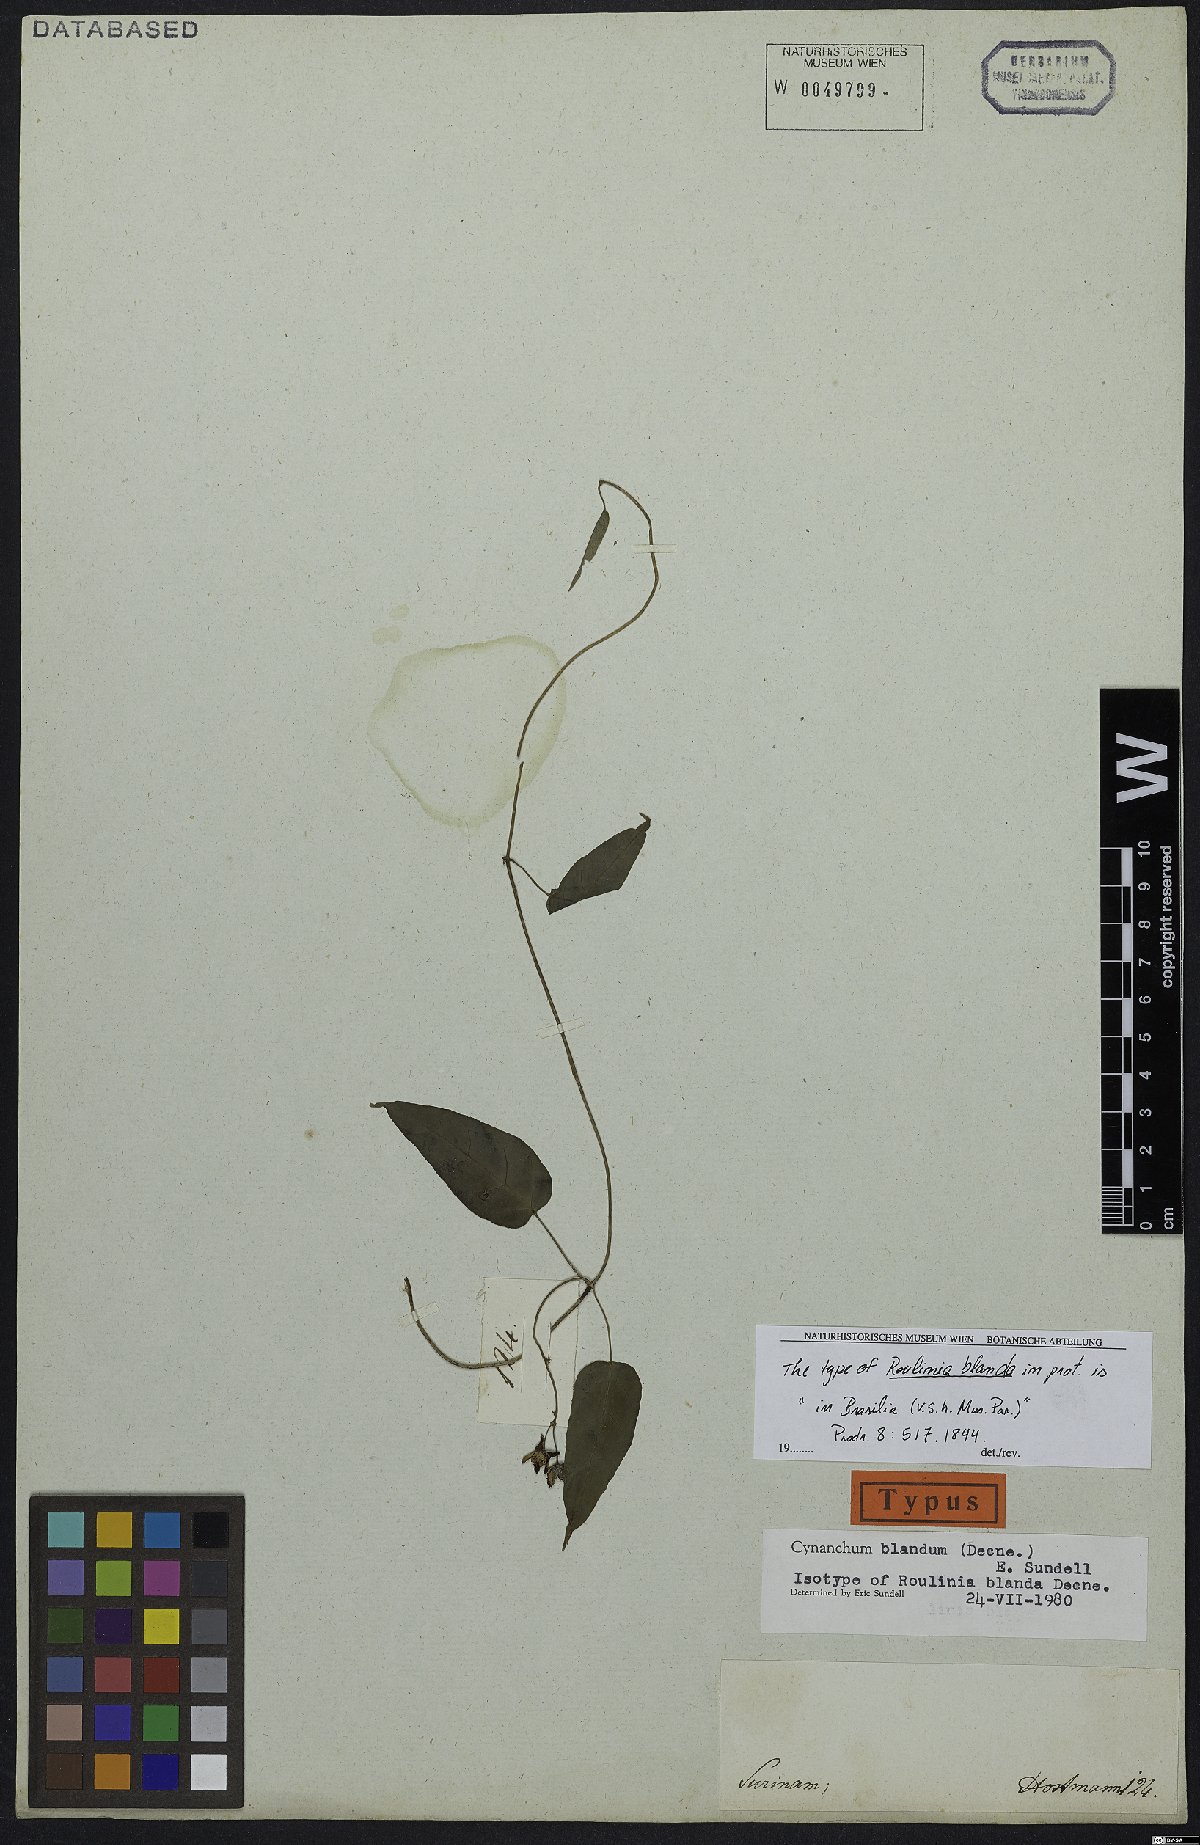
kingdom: Plantae
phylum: Tracheophyta
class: Magnoliopsida
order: Gentianales
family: Apocynaceae
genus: Cynanchum
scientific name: Cynanchum blandum
